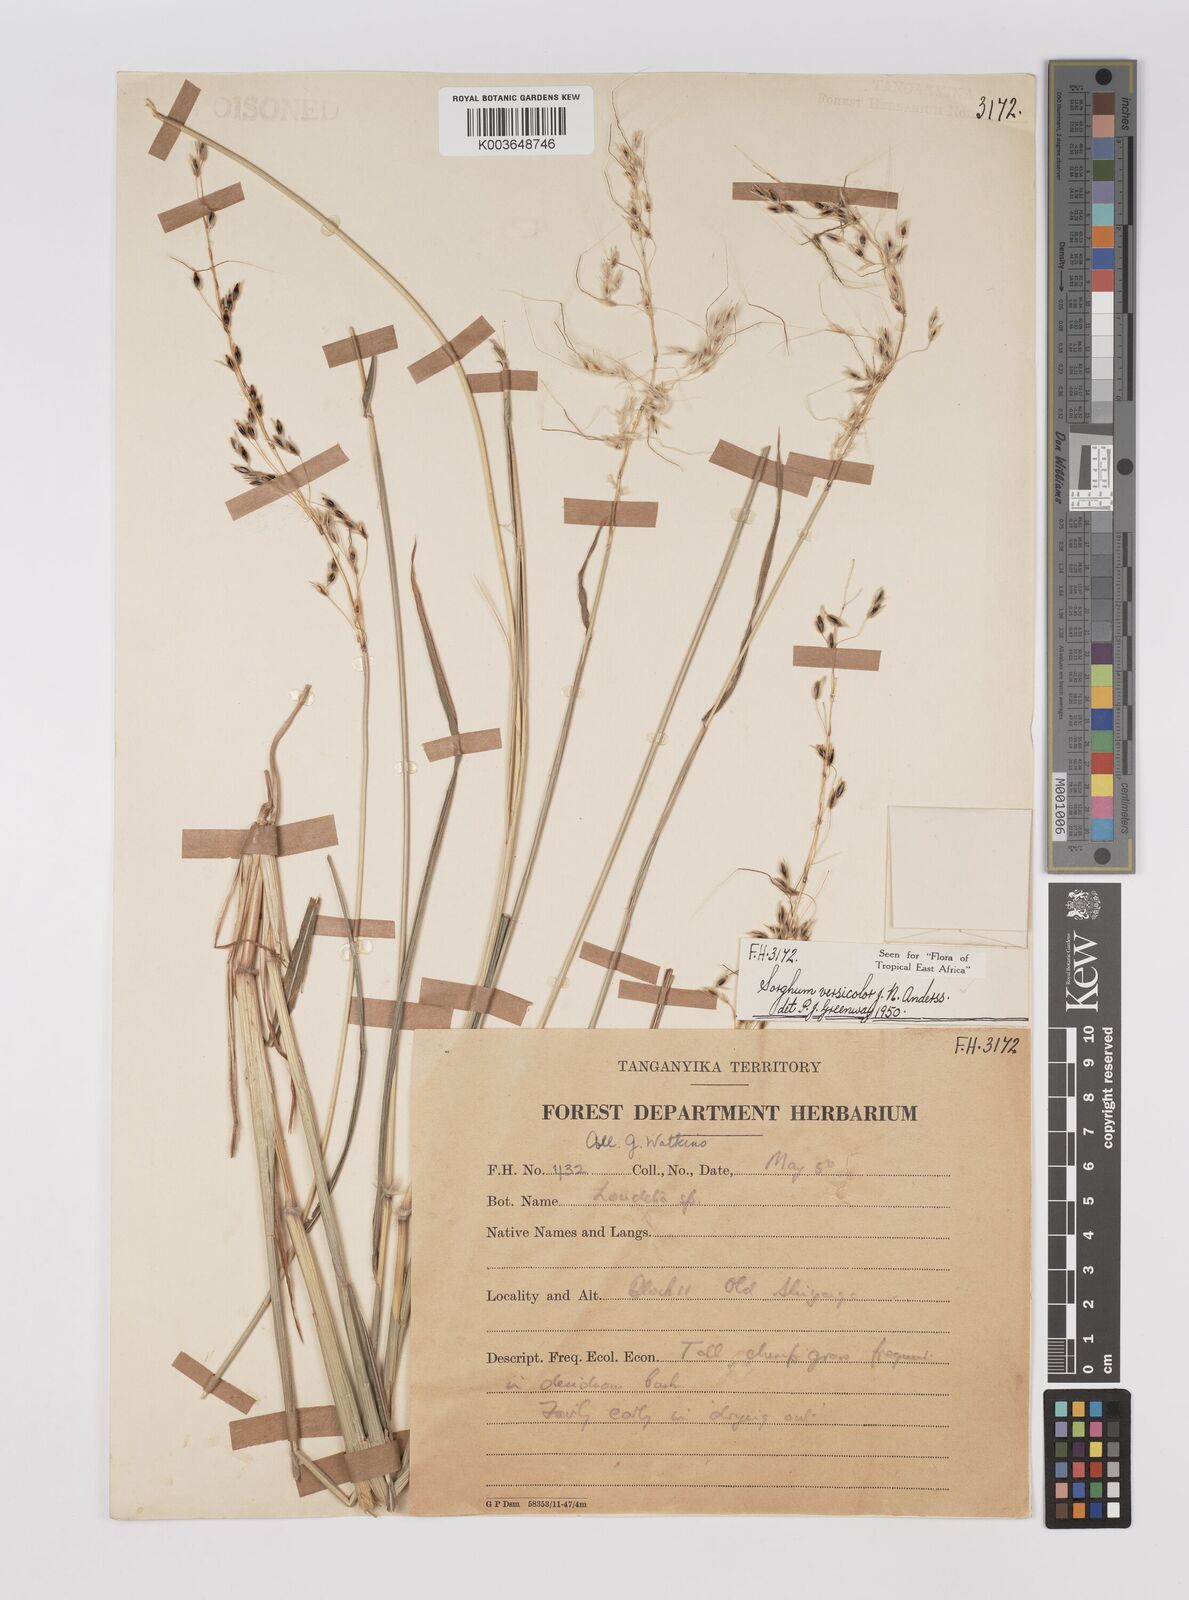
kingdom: Plantae
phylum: Tracheophyta
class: Liliopsida
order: Poales
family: Poaceae
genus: Sarga
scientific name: Sarga versicolor
